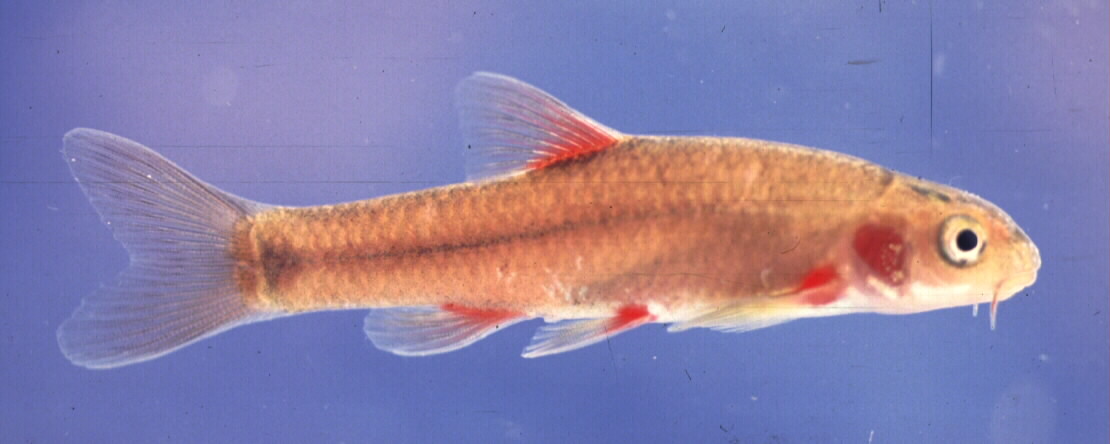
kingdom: Animalia
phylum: Chordata
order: Cypriniformes
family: Cyprinidae
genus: Pseudobarbus
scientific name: Pseudobarbus tenuis
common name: Slender redfin
